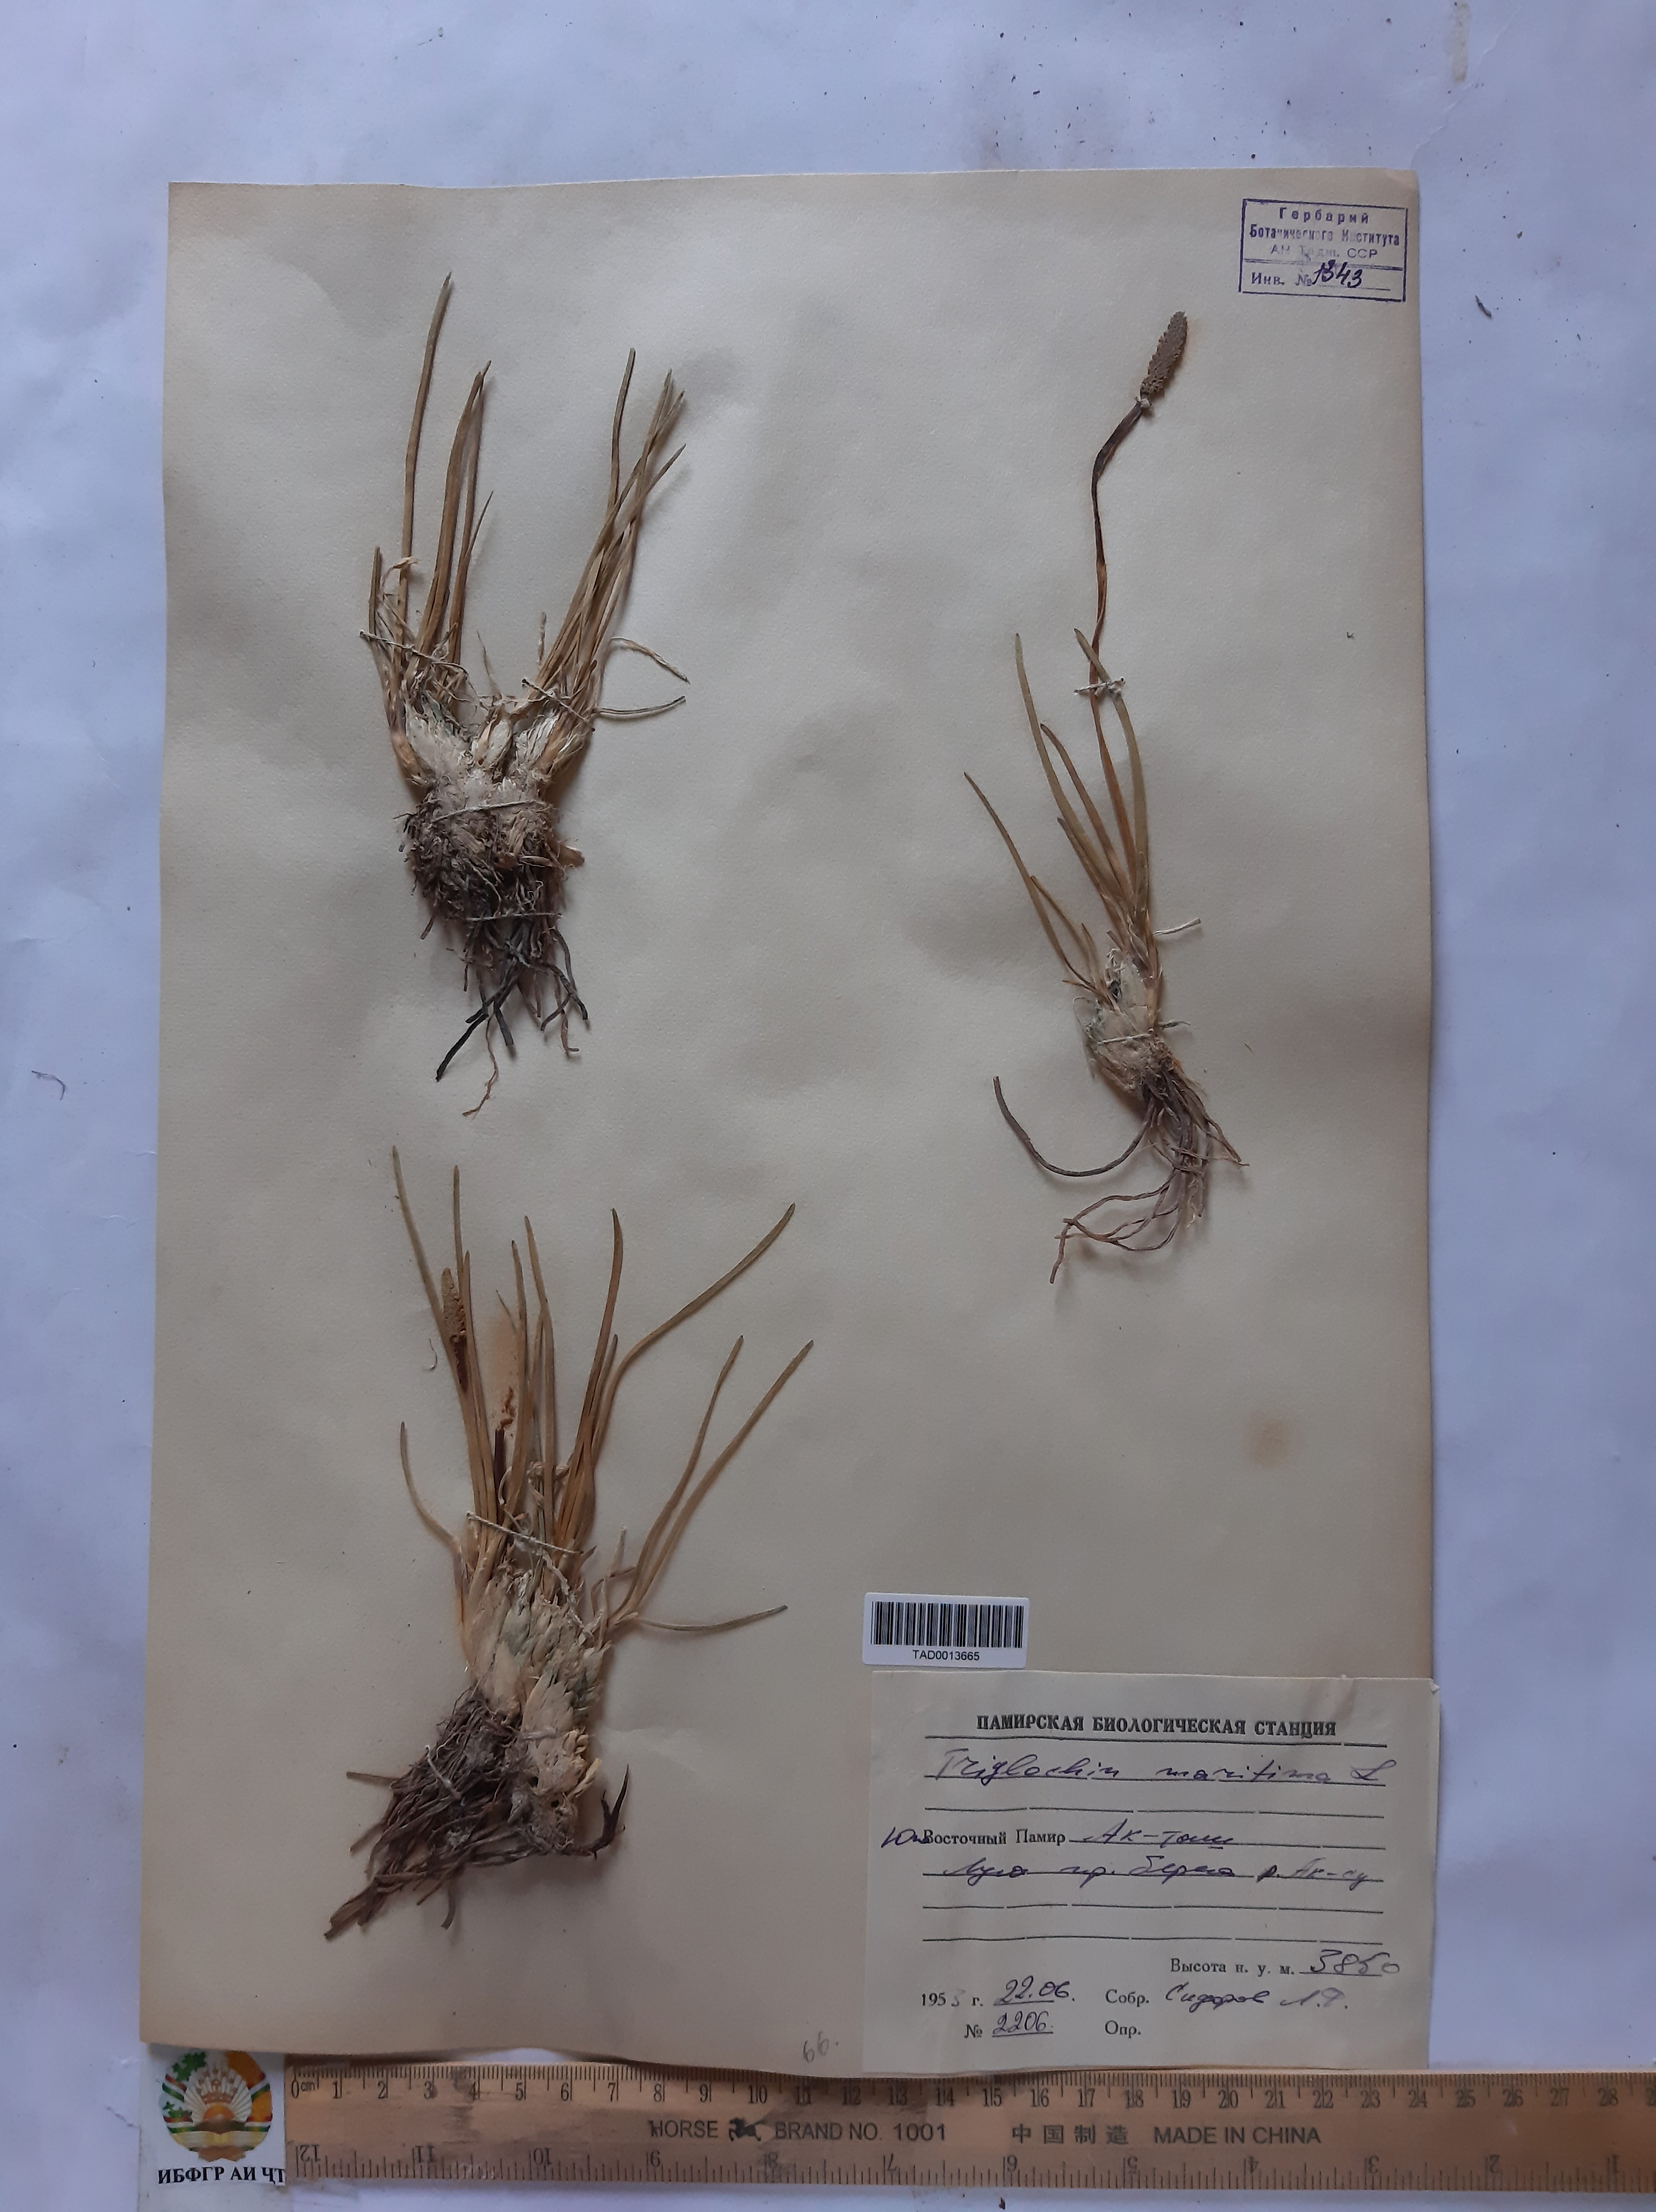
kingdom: Plantae
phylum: Tracheophyta
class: Liliopsida
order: Alismatales
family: Juncaginaceae
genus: Triglochin
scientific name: Triglochin maritima
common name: Sea arrowgrass
